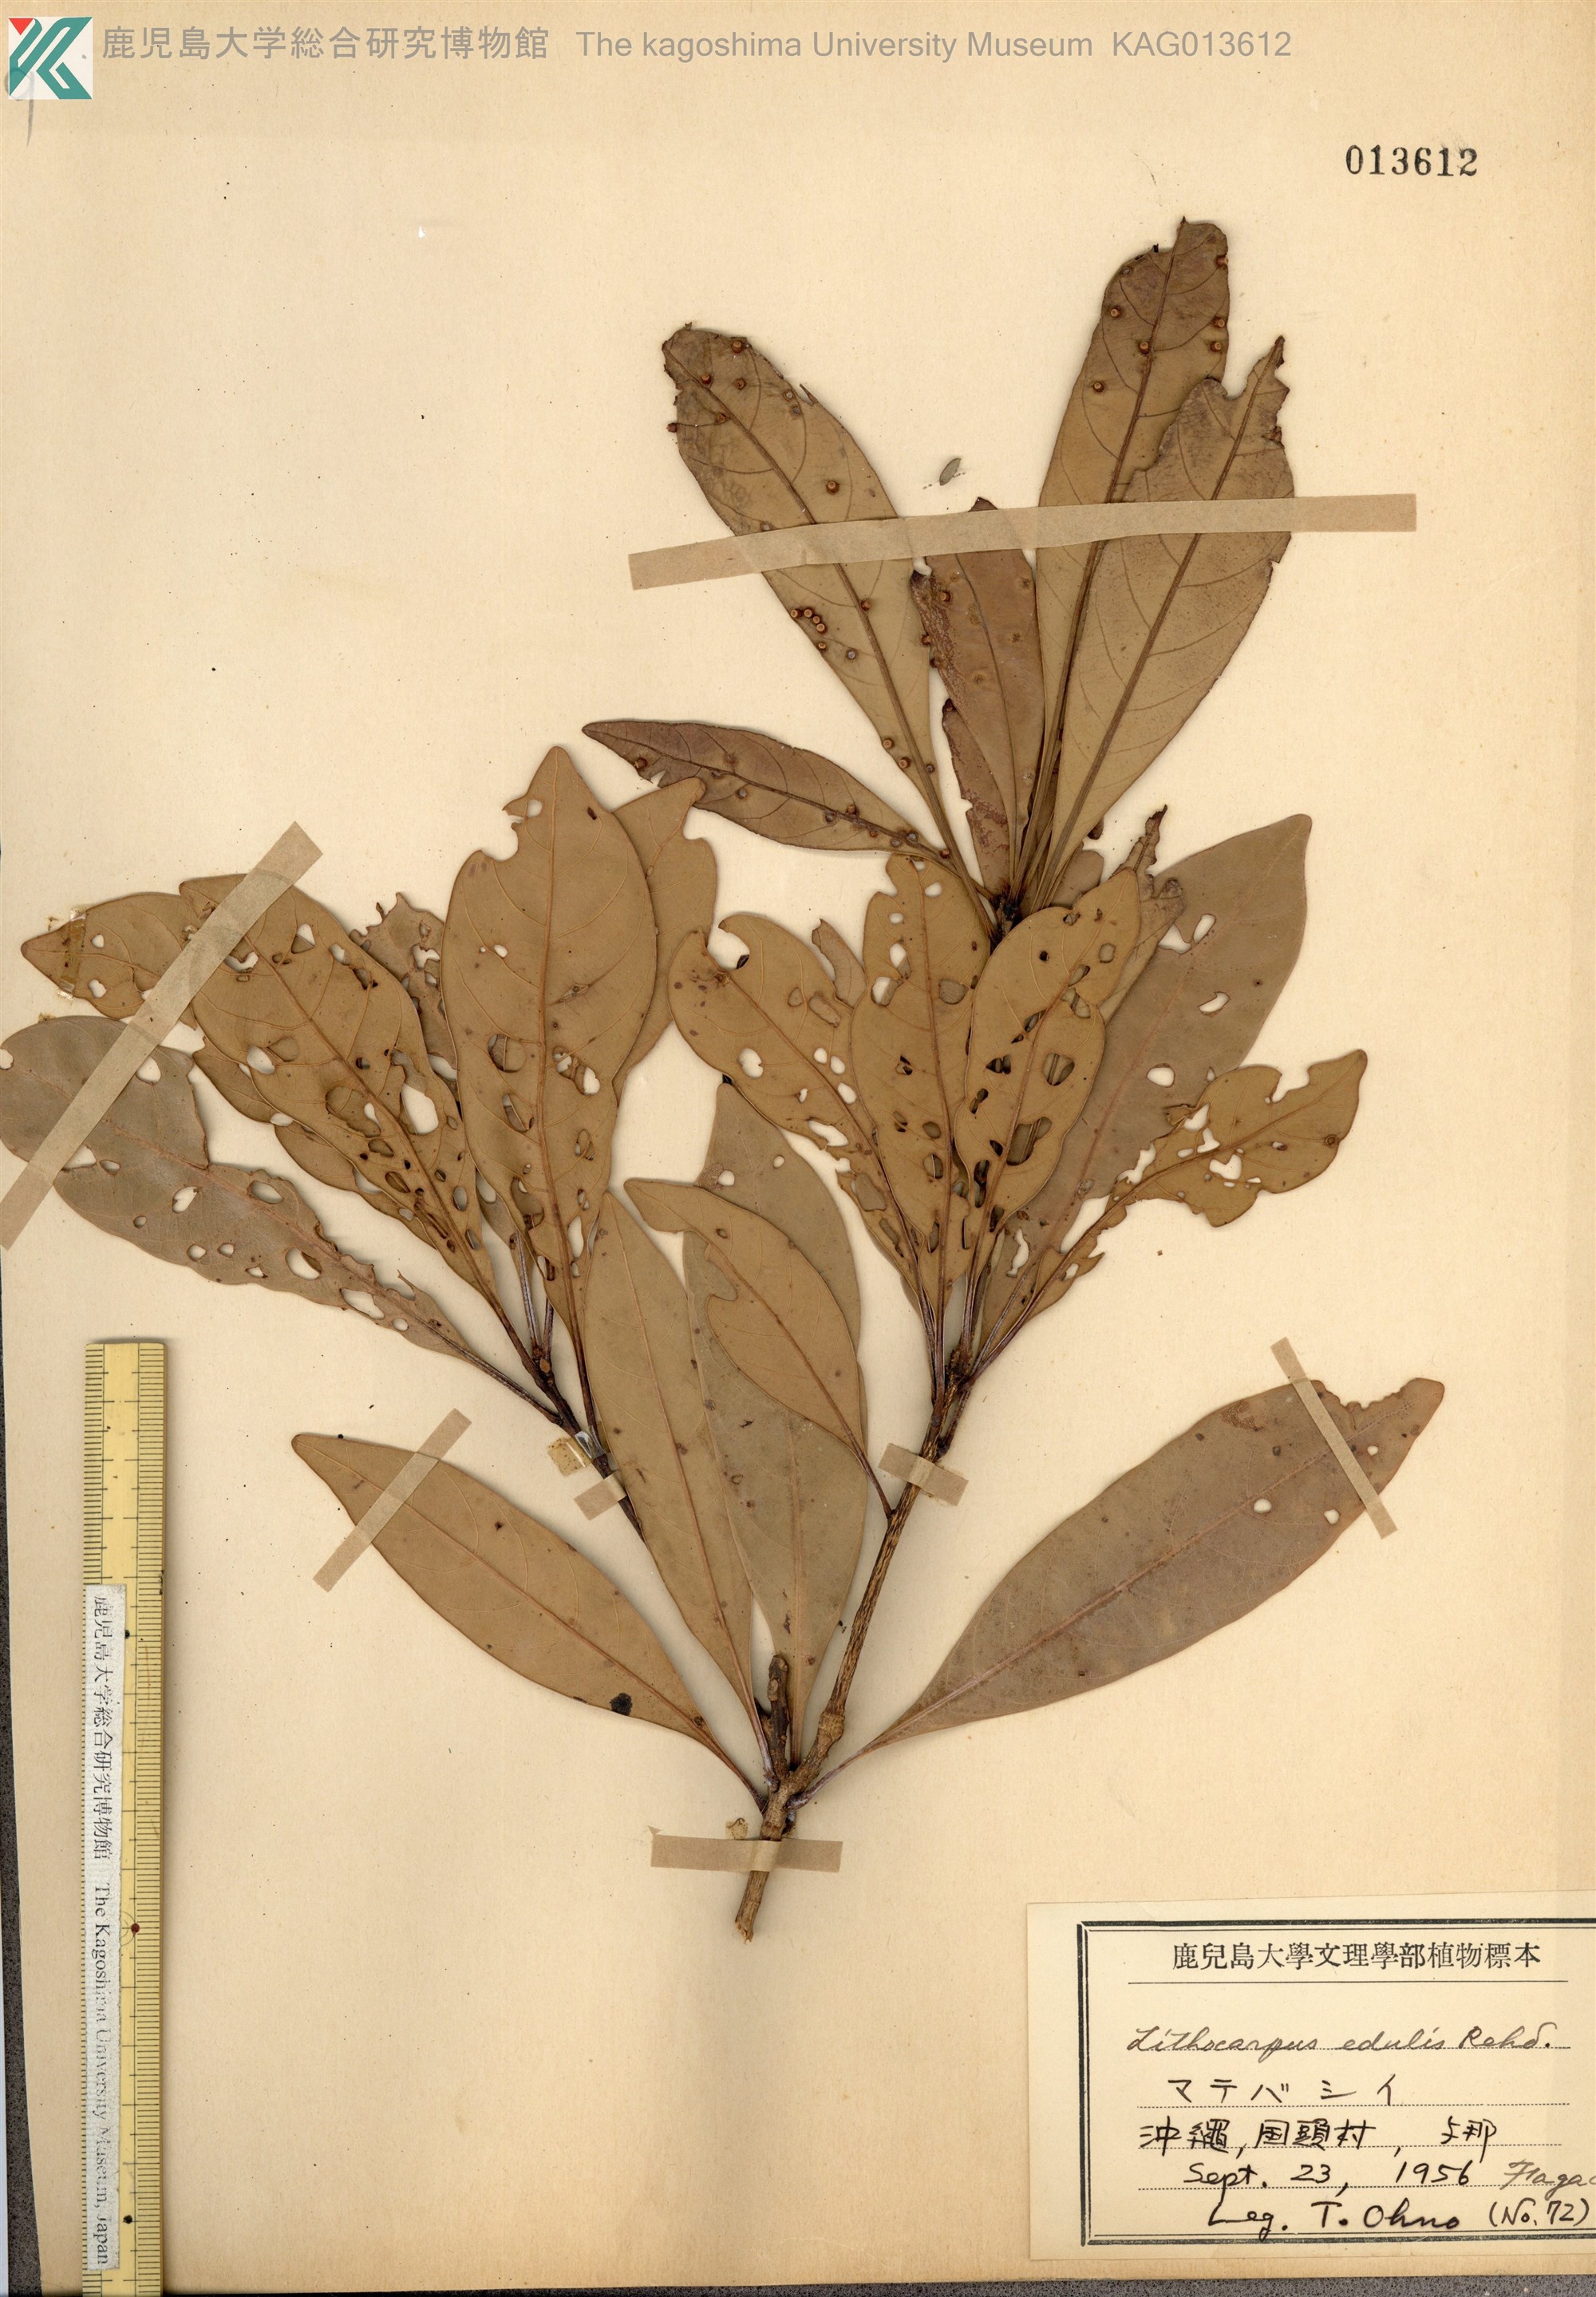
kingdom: Plantae
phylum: Tracheophyta
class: Magnoliopsida
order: Fagales
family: Fagaceae
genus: Lithocarpus
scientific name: Lithocarpus edulis
